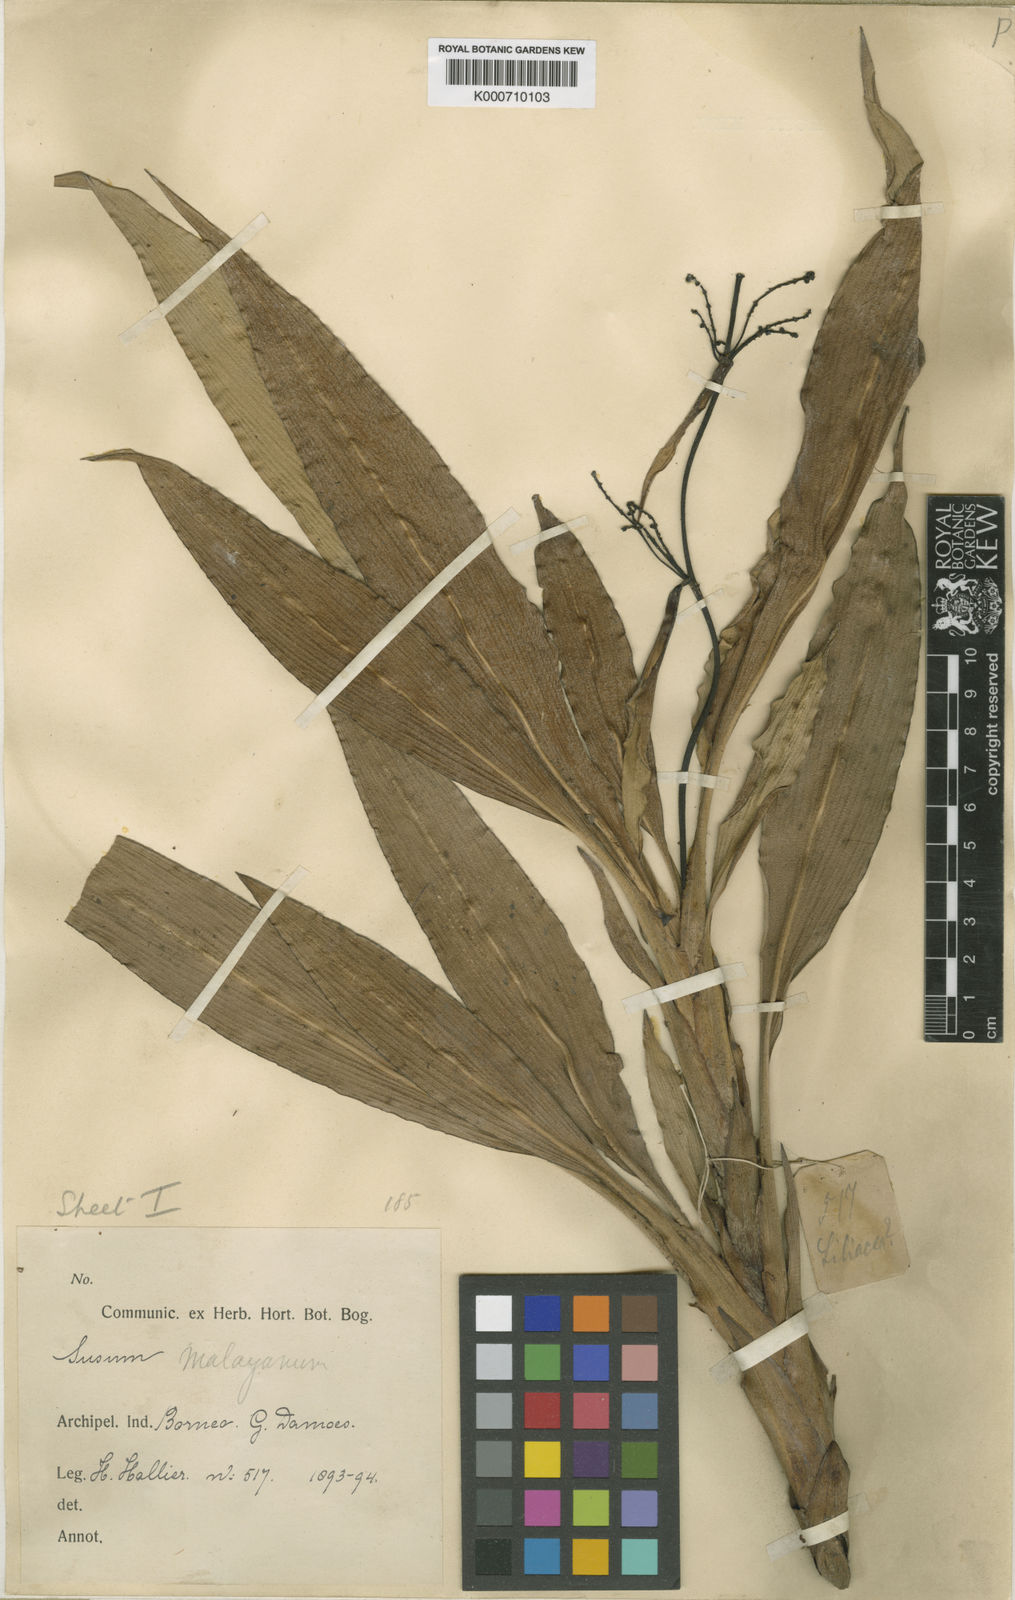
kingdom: Plantae
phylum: Tracheophyta
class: Liliopsida
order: Commelinales
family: Hanguanaceae
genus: Hanguana
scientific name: Hanguana malayana
